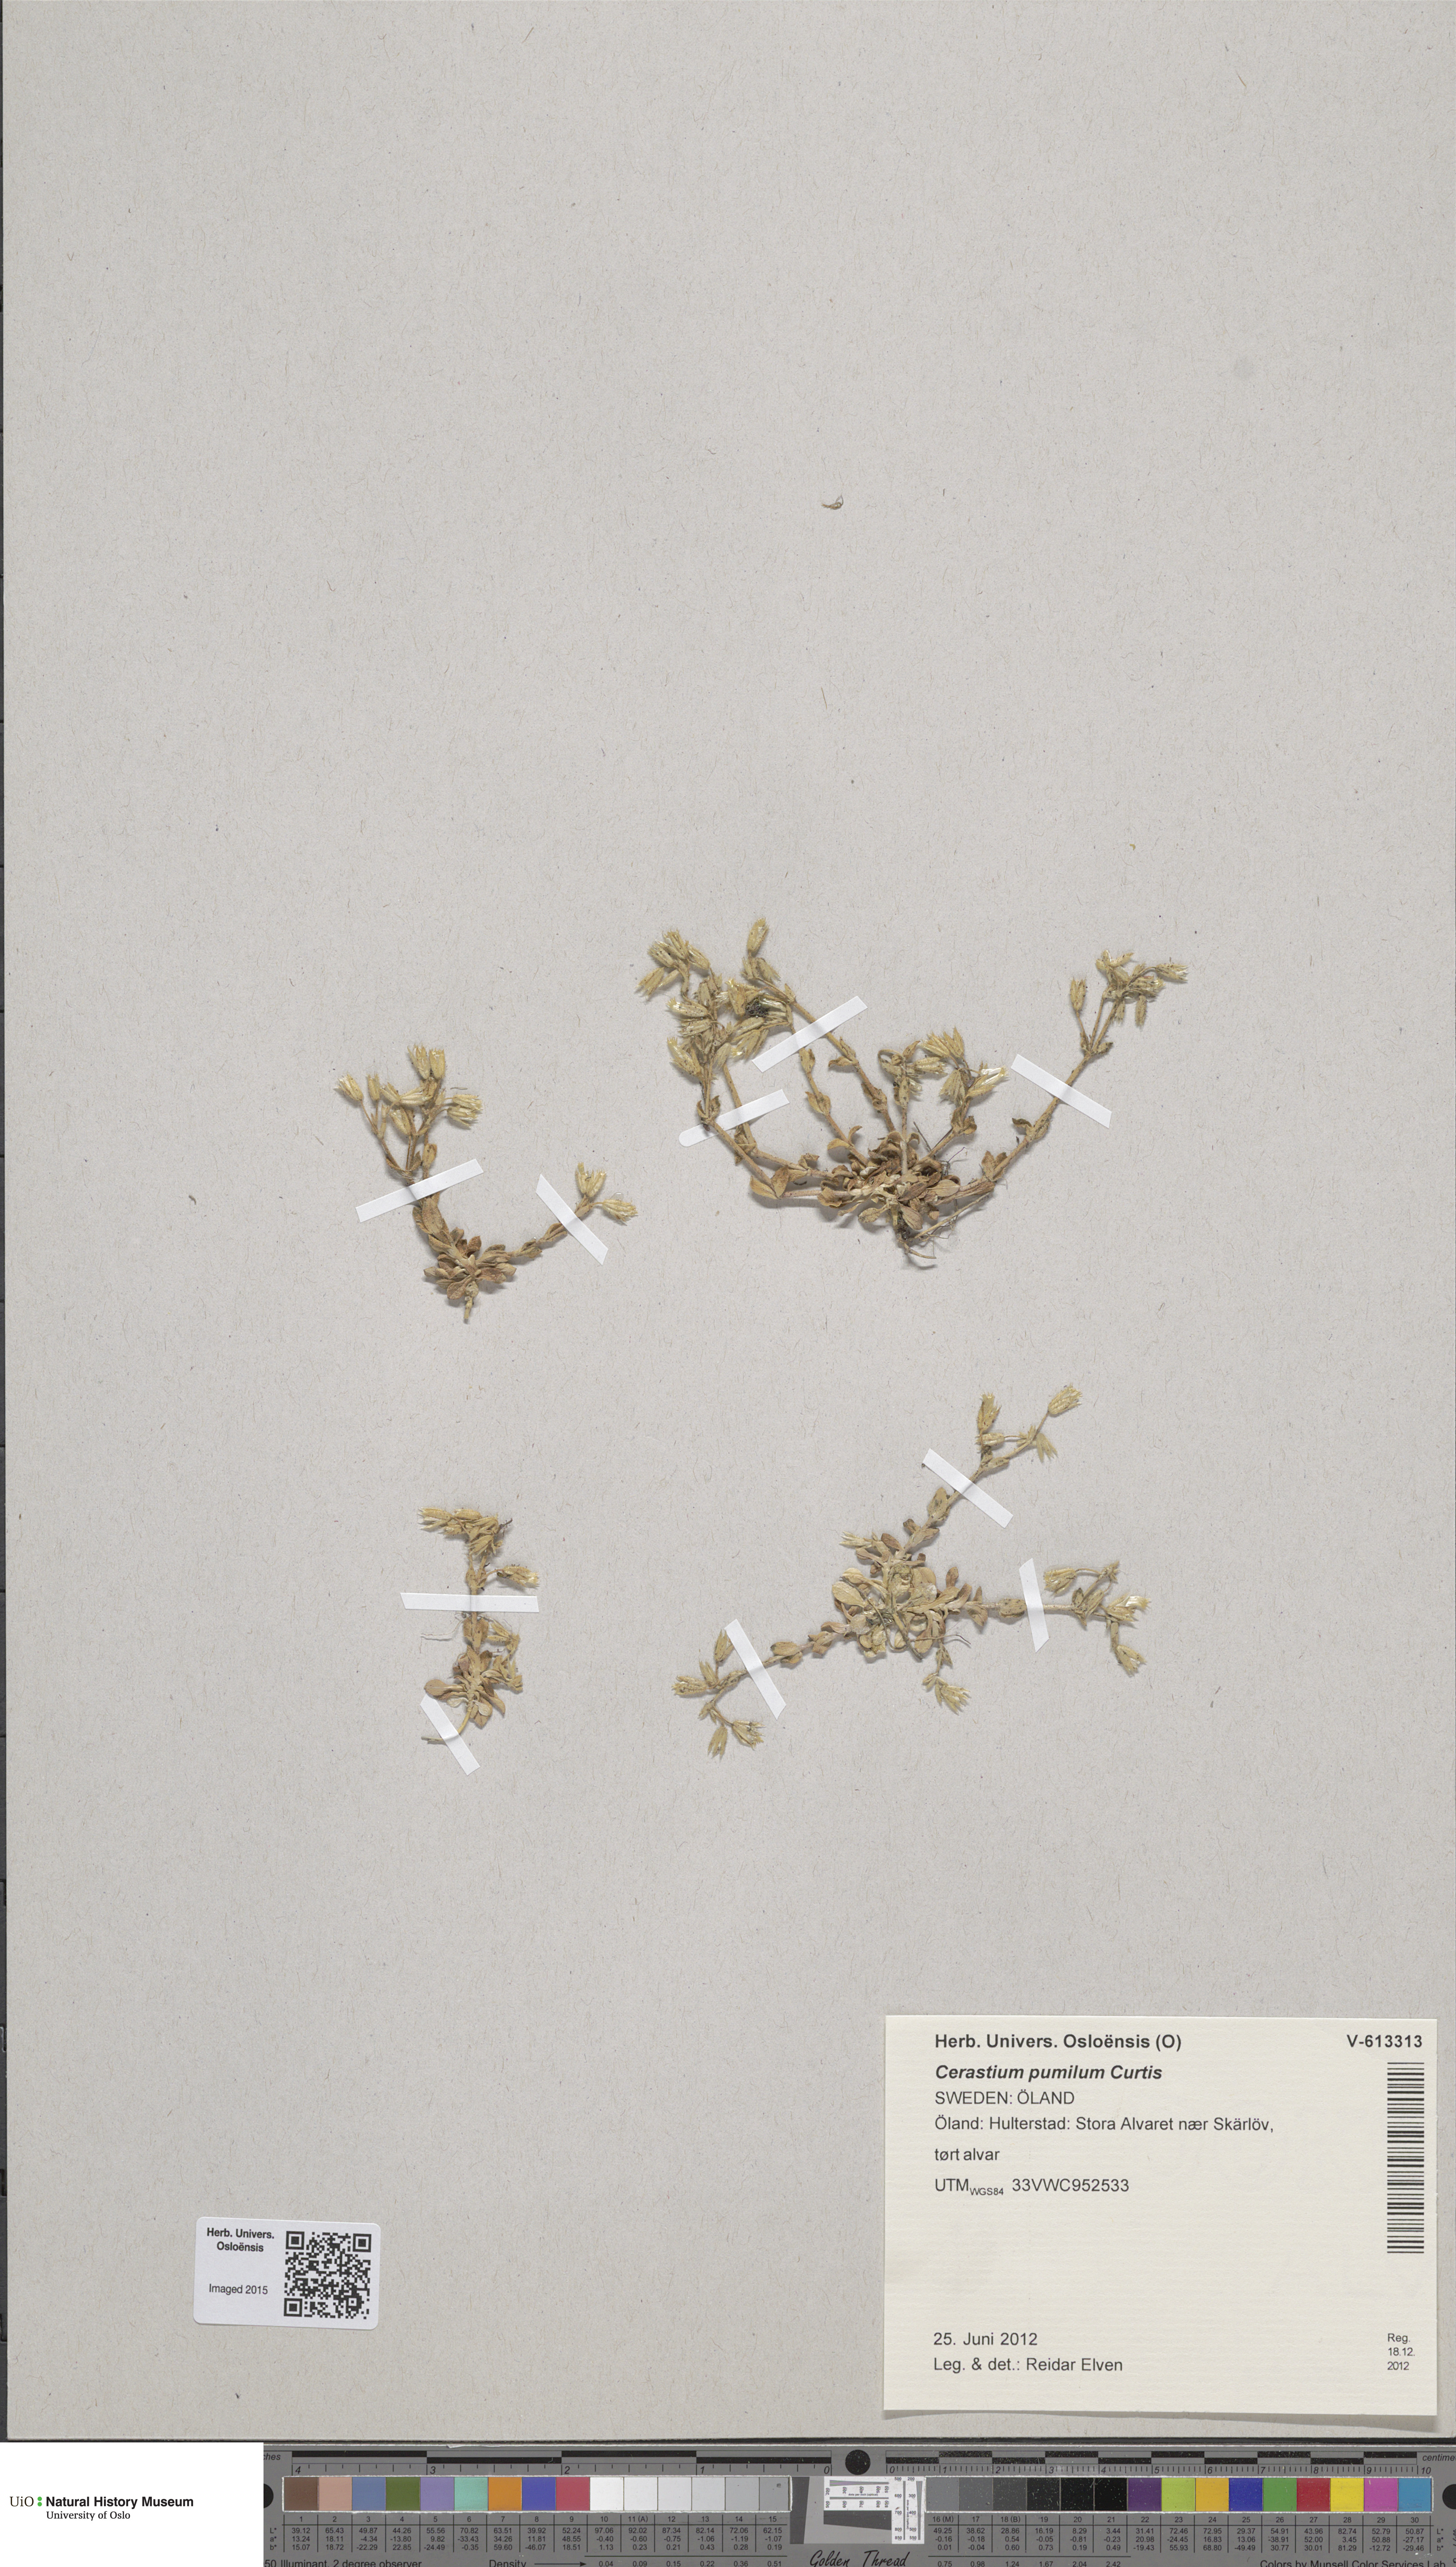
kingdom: Plantae
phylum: Tracheophyta
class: Magnoliopsida
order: Caryophyllales
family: Caryophyllaceae
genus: Cerastium
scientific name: Cerastium pumilum
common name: Dwarf mouse-ear
